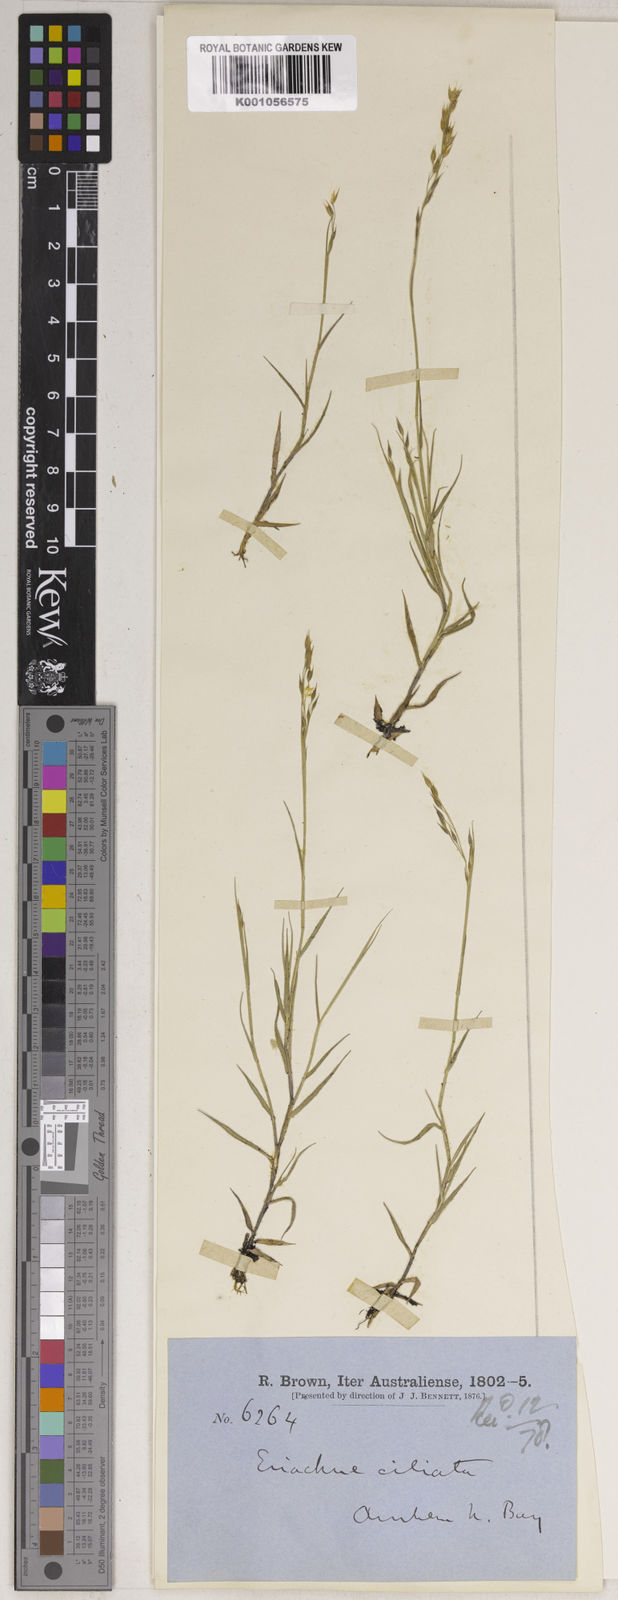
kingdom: Plantae
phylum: Tracheophyta
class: Liliopsida
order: Poales
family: Poaceae
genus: Eriachne
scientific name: Eriachne ciliata
